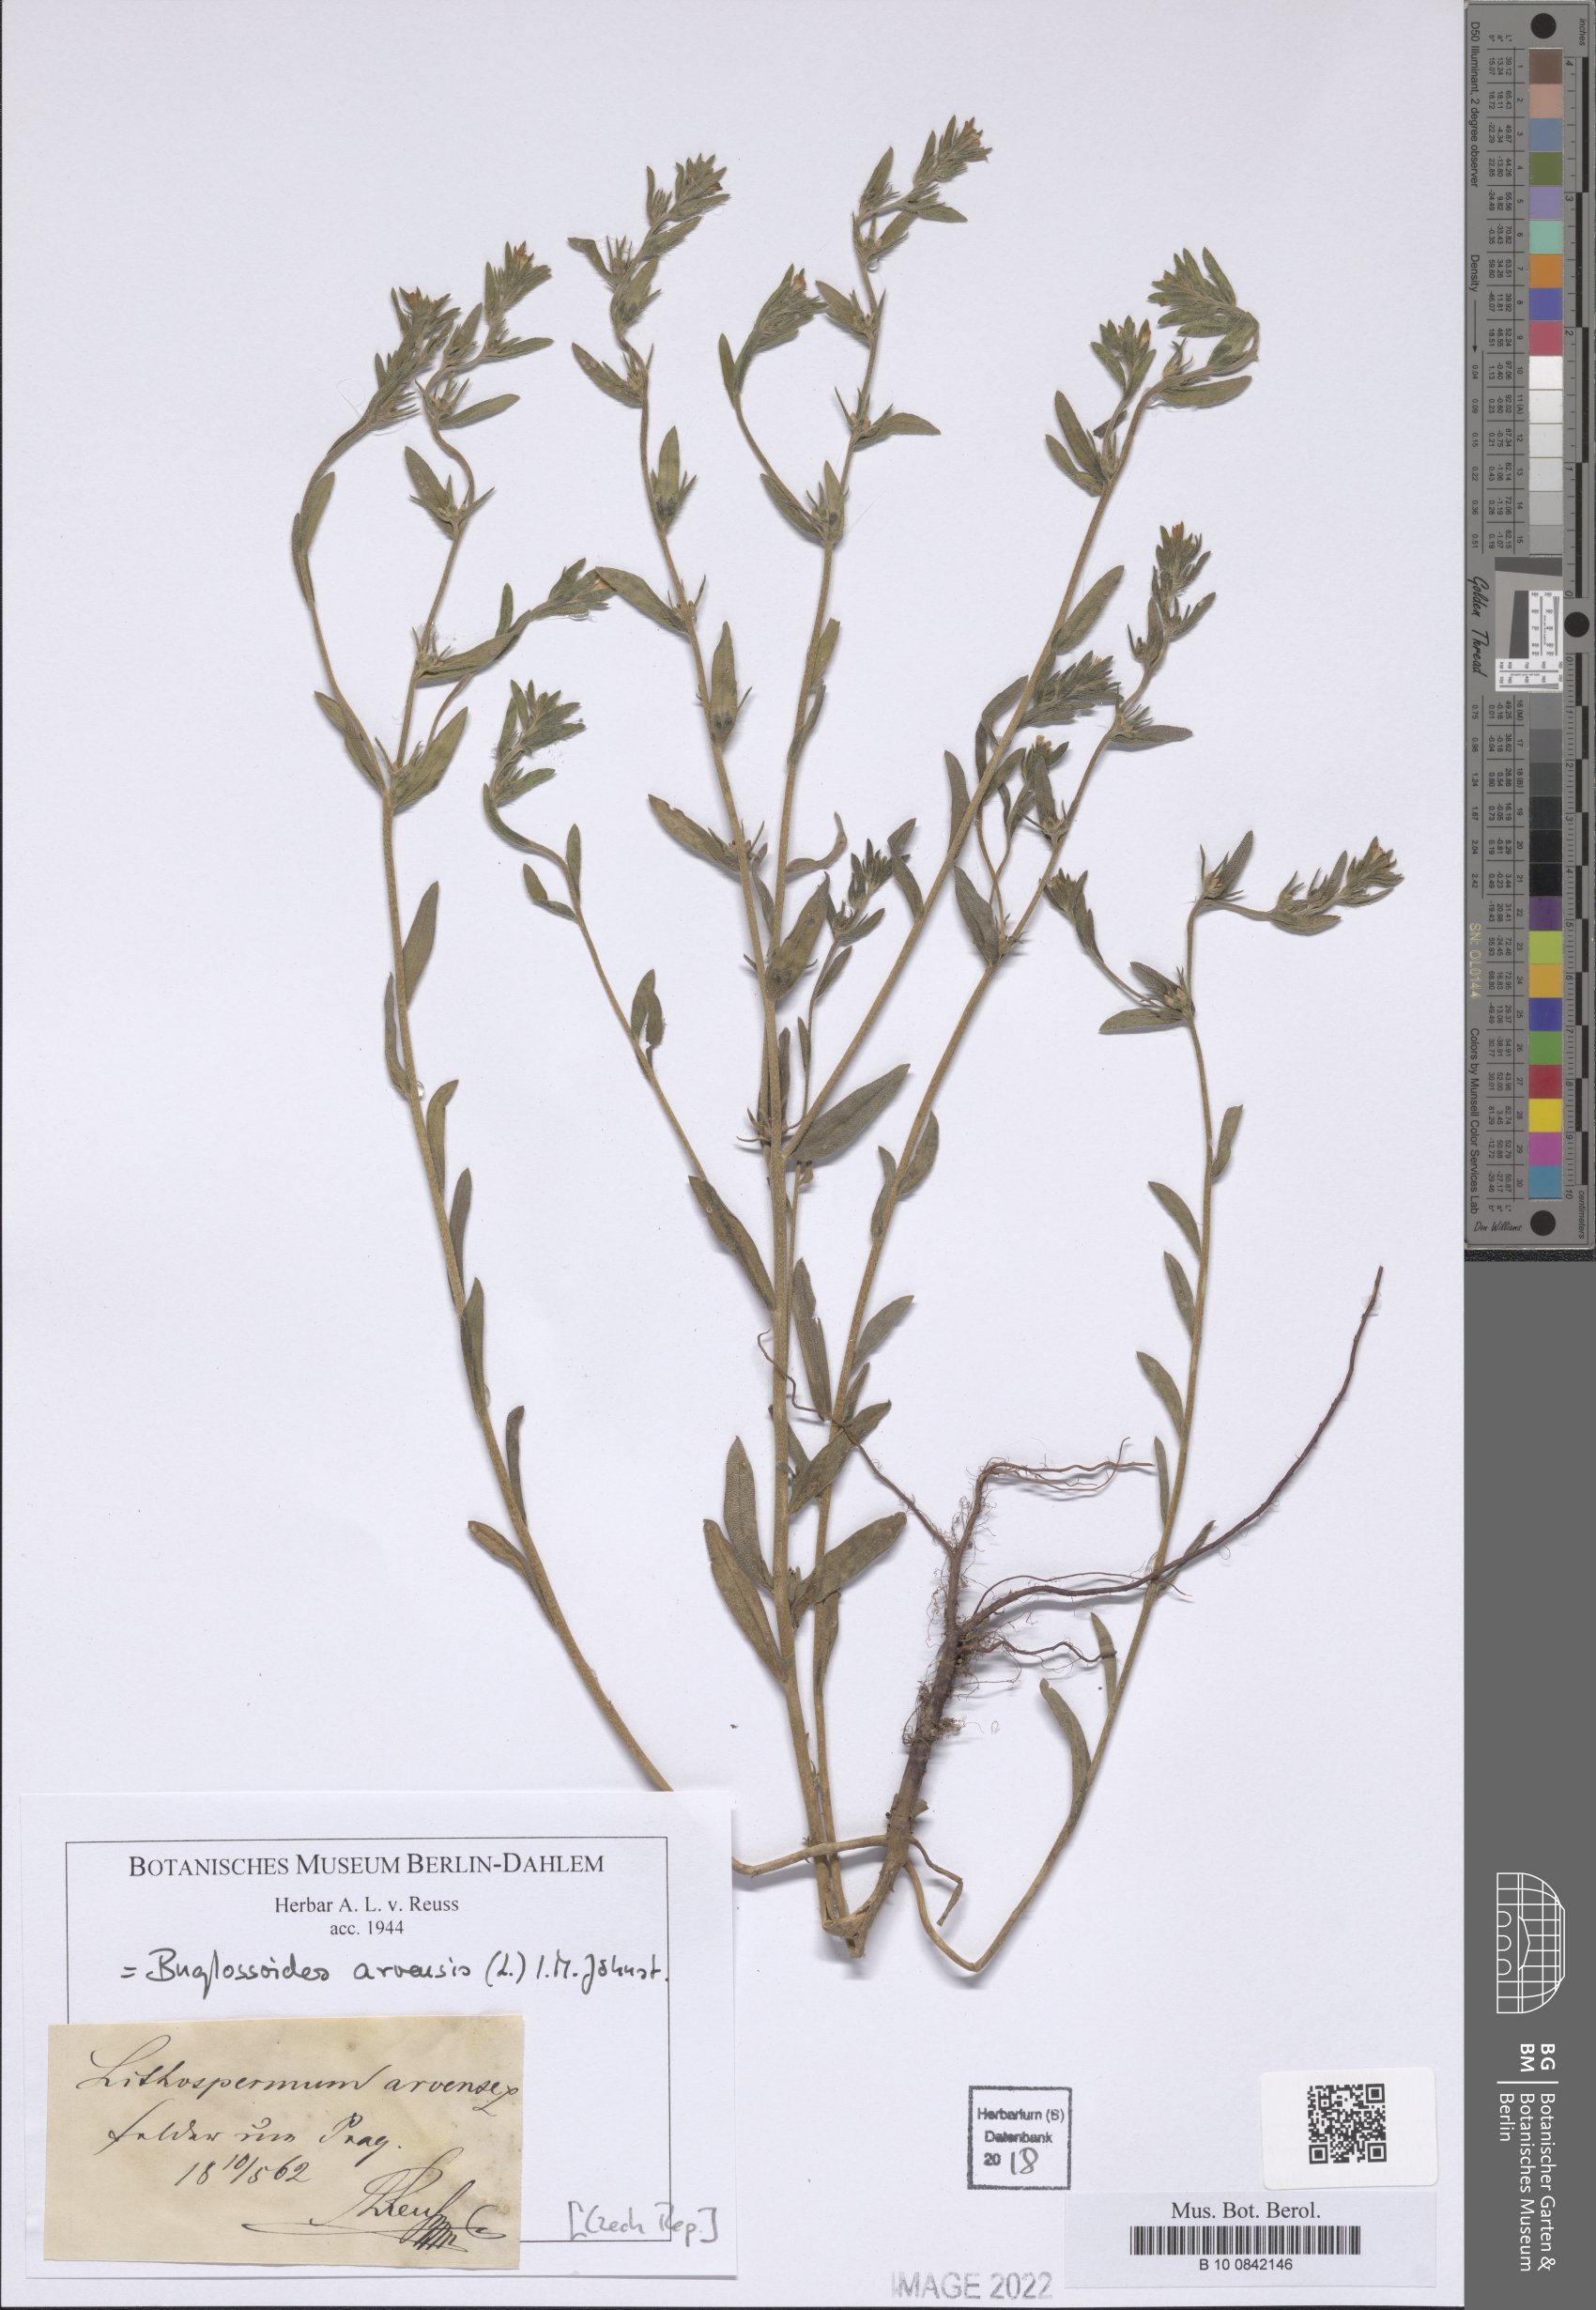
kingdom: Plantae
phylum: Tracheophyta
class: Magnoliopsida
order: Boraginales
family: Boraginaceae
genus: Buglossoides
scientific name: Buglossoides arvensis
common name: Corn gromwell
